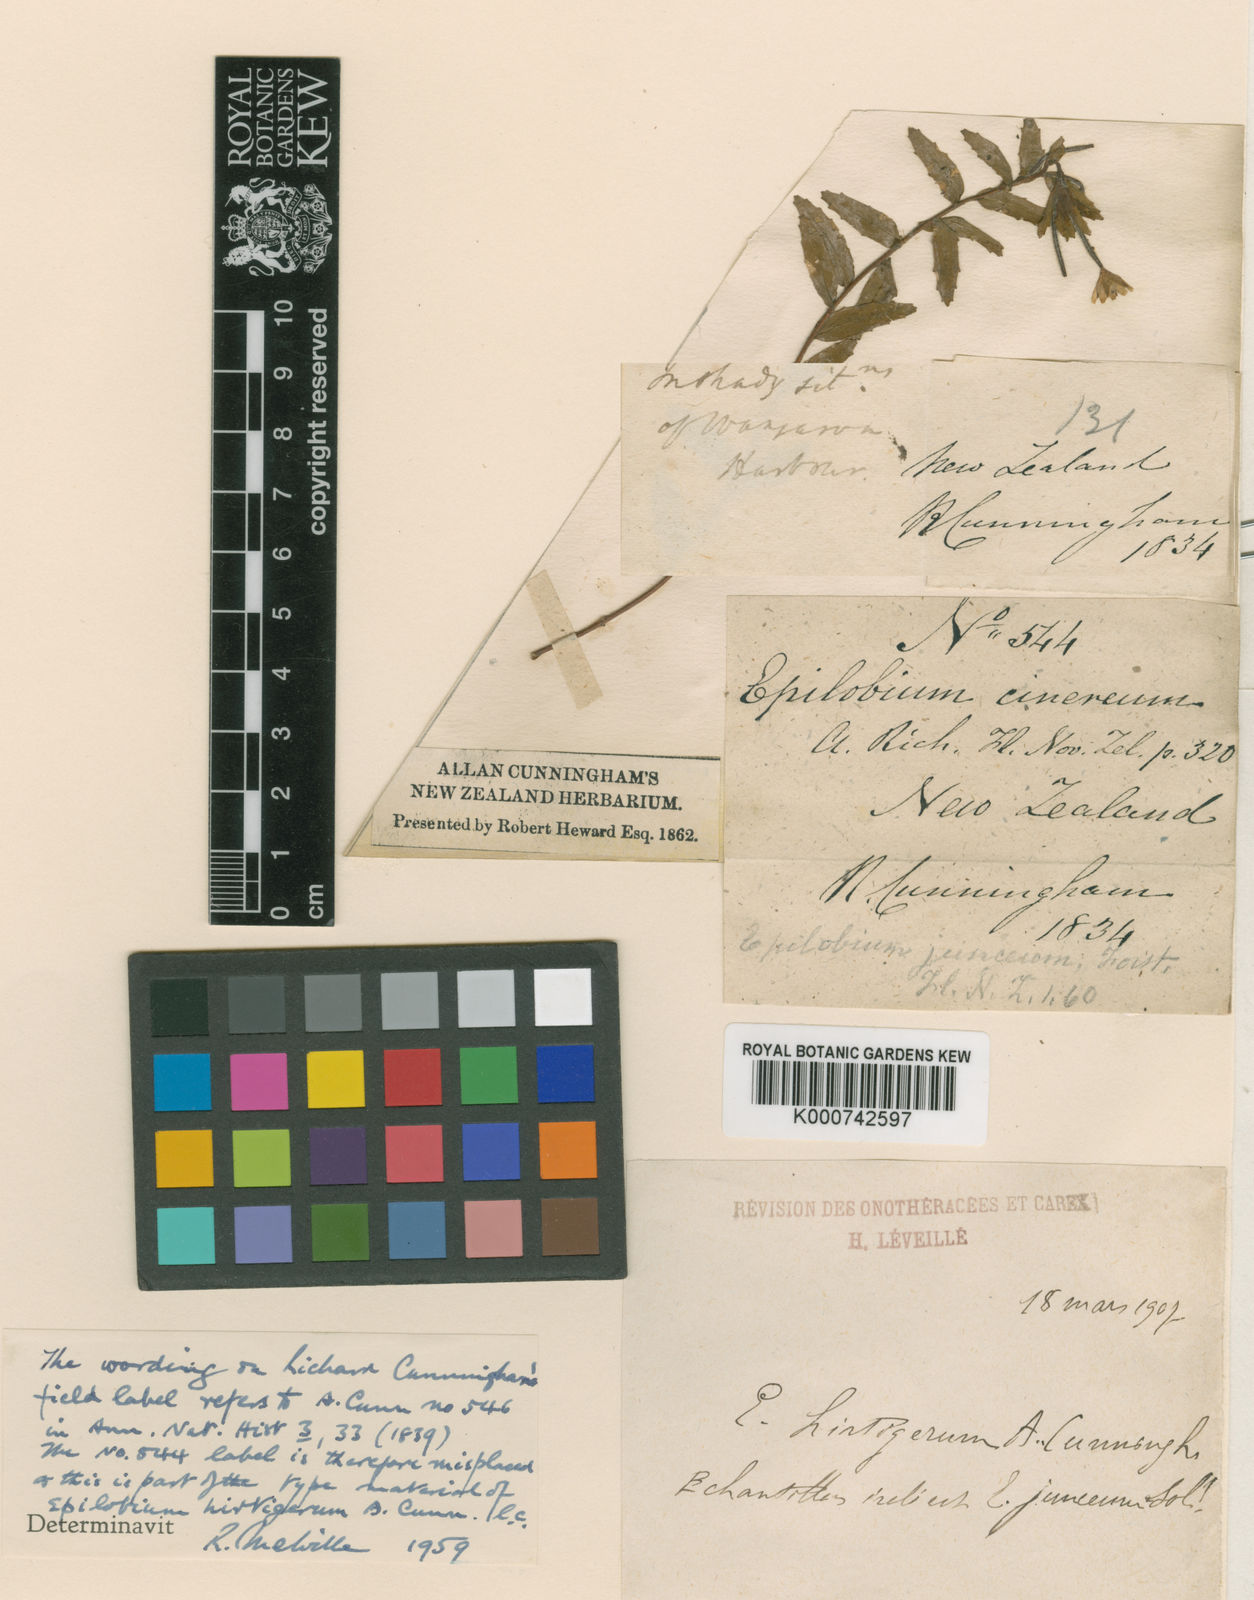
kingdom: Plantae
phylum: Tracheophyta
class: Magnoliopsida
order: Myrtales
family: Onagraceae
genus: Epilobium
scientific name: Epilobium hirtigerum
